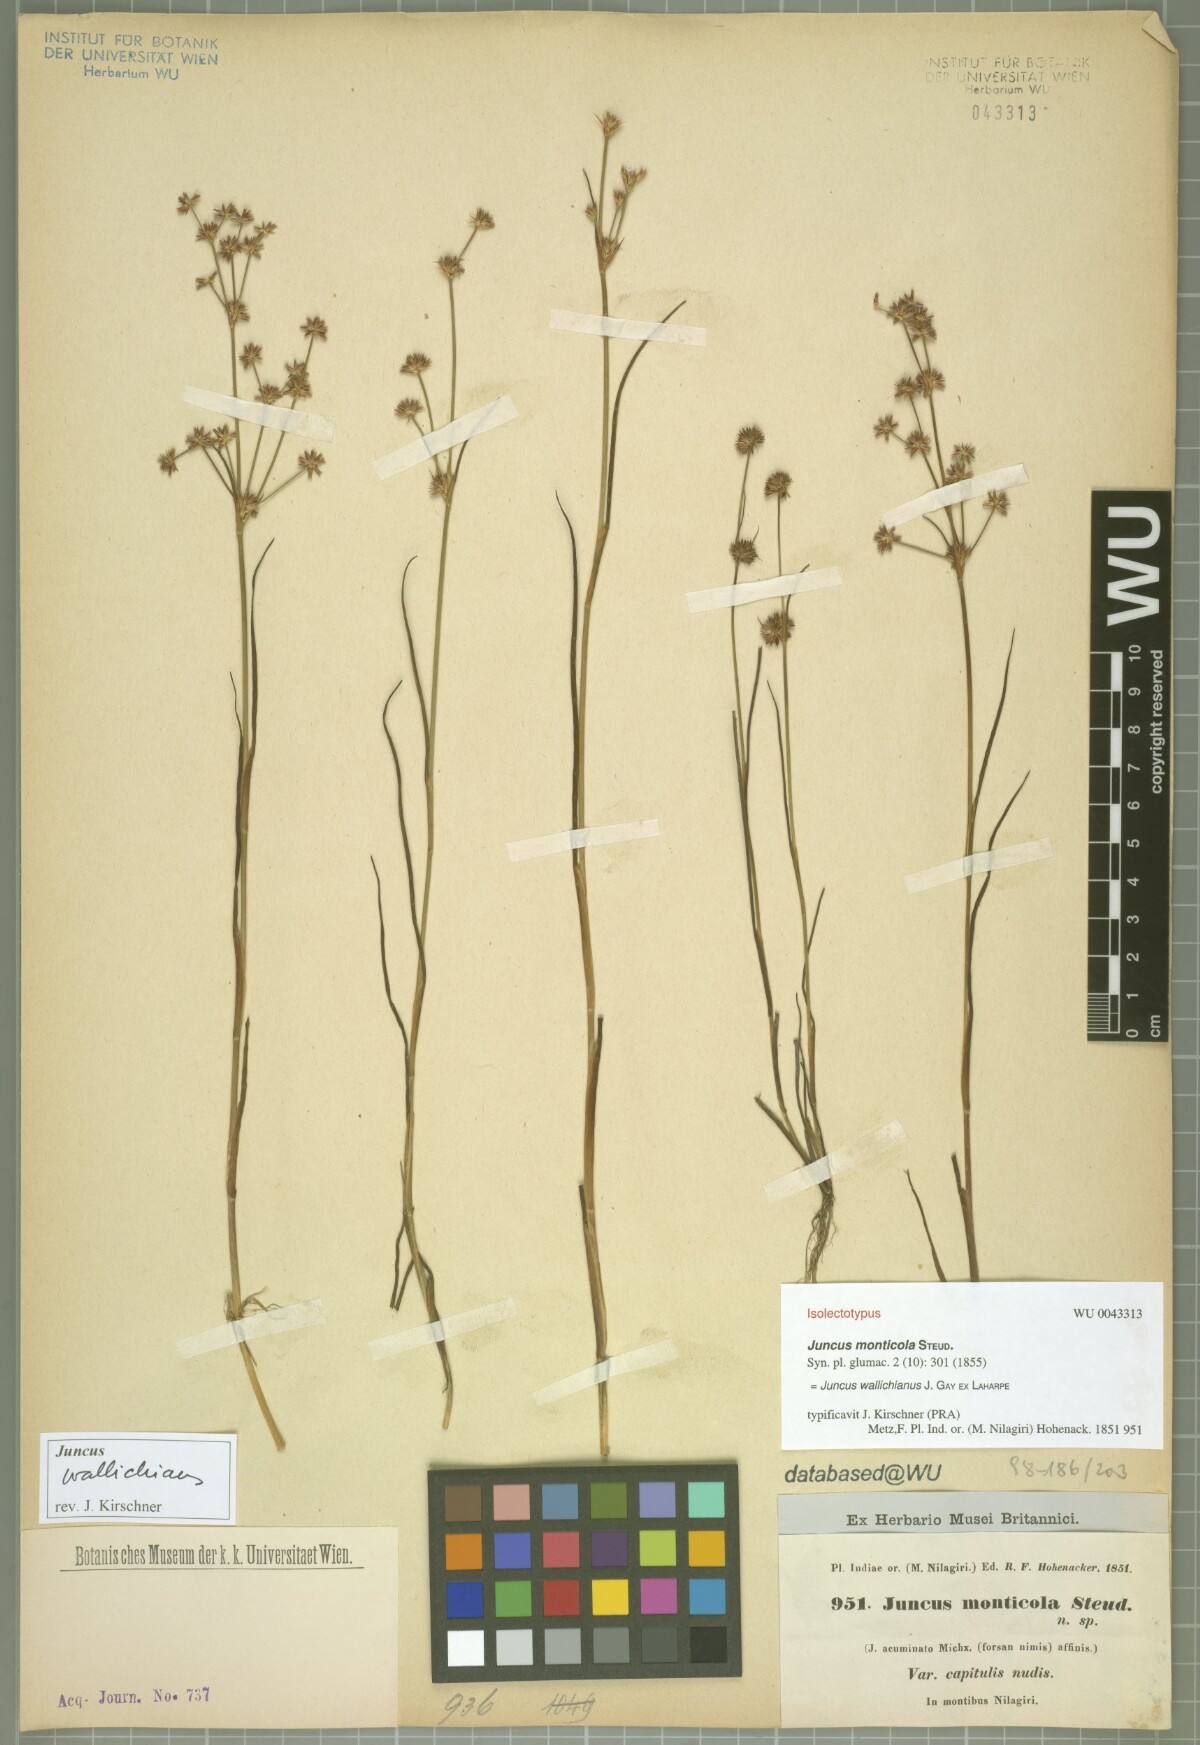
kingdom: Plantae
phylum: Tracheophyta
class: Liliopsida
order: Poales
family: Juncaceae
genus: Juncus
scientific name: Juncus wallichianus
